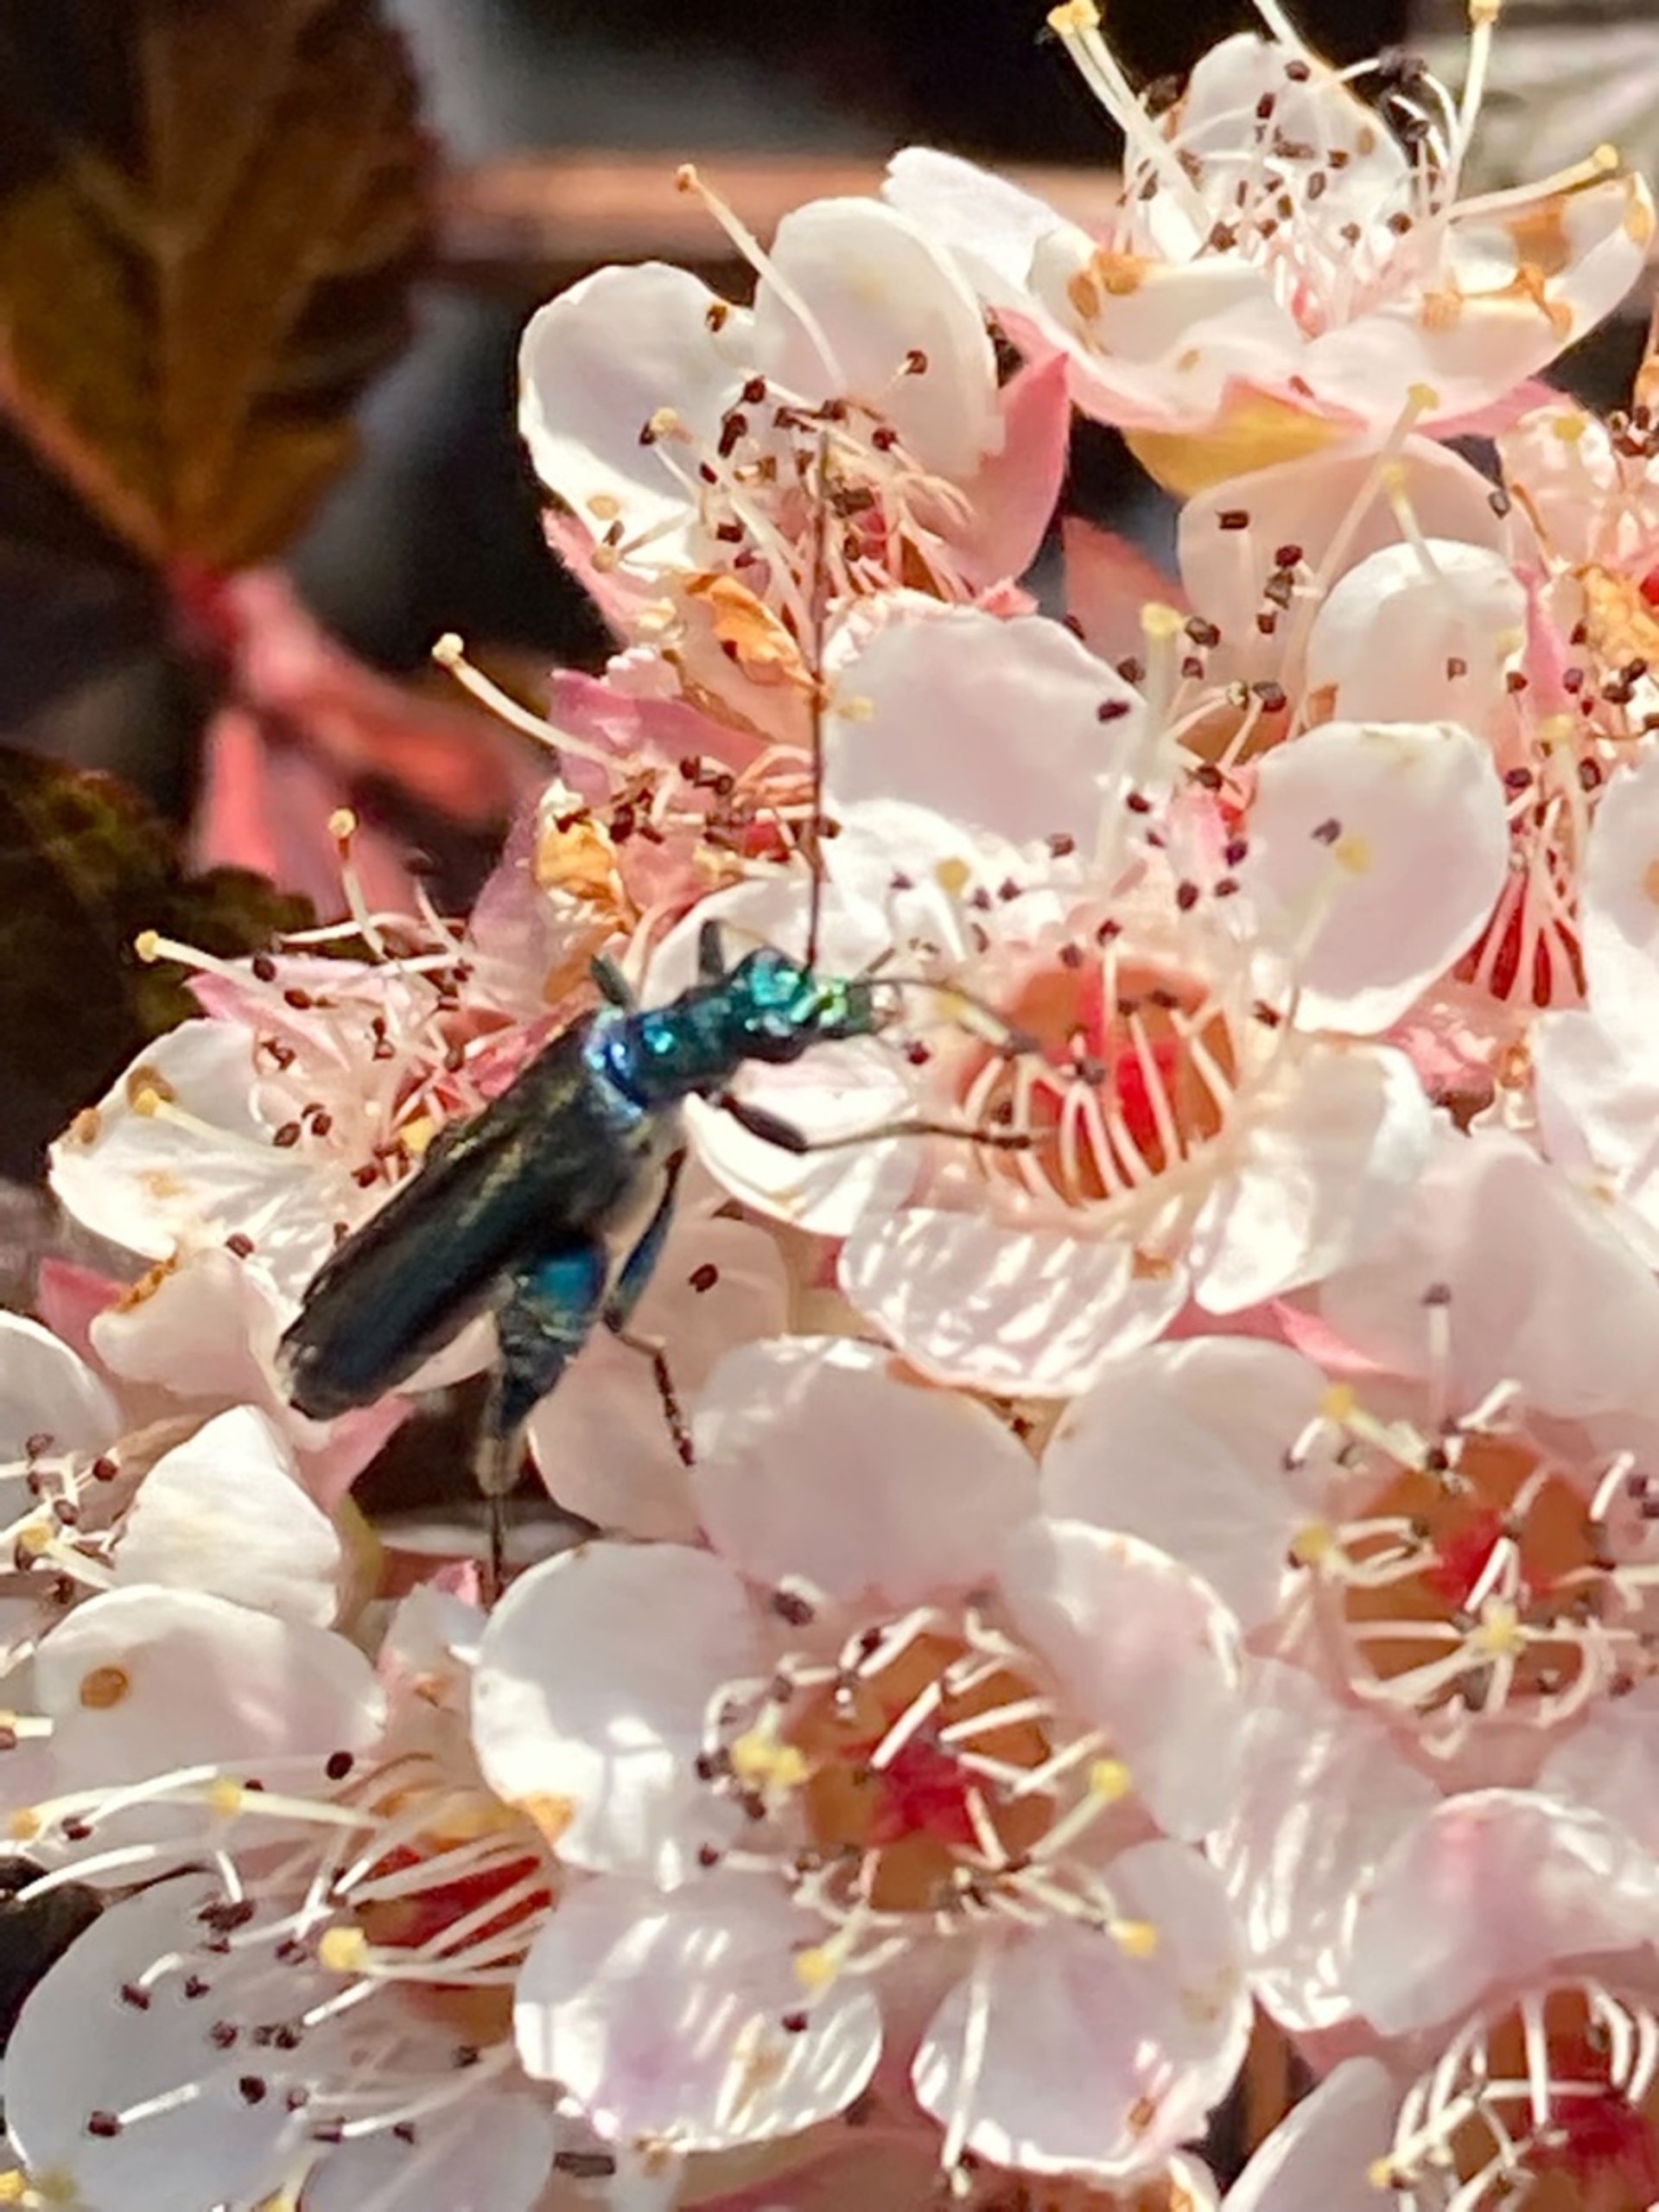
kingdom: Animalia
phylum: Arthropoda
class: Insecta
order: Coleoptera
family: Oedemeridae
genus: Oedemera
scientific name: Oedemera nobilis
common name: Tyklårssolbille
